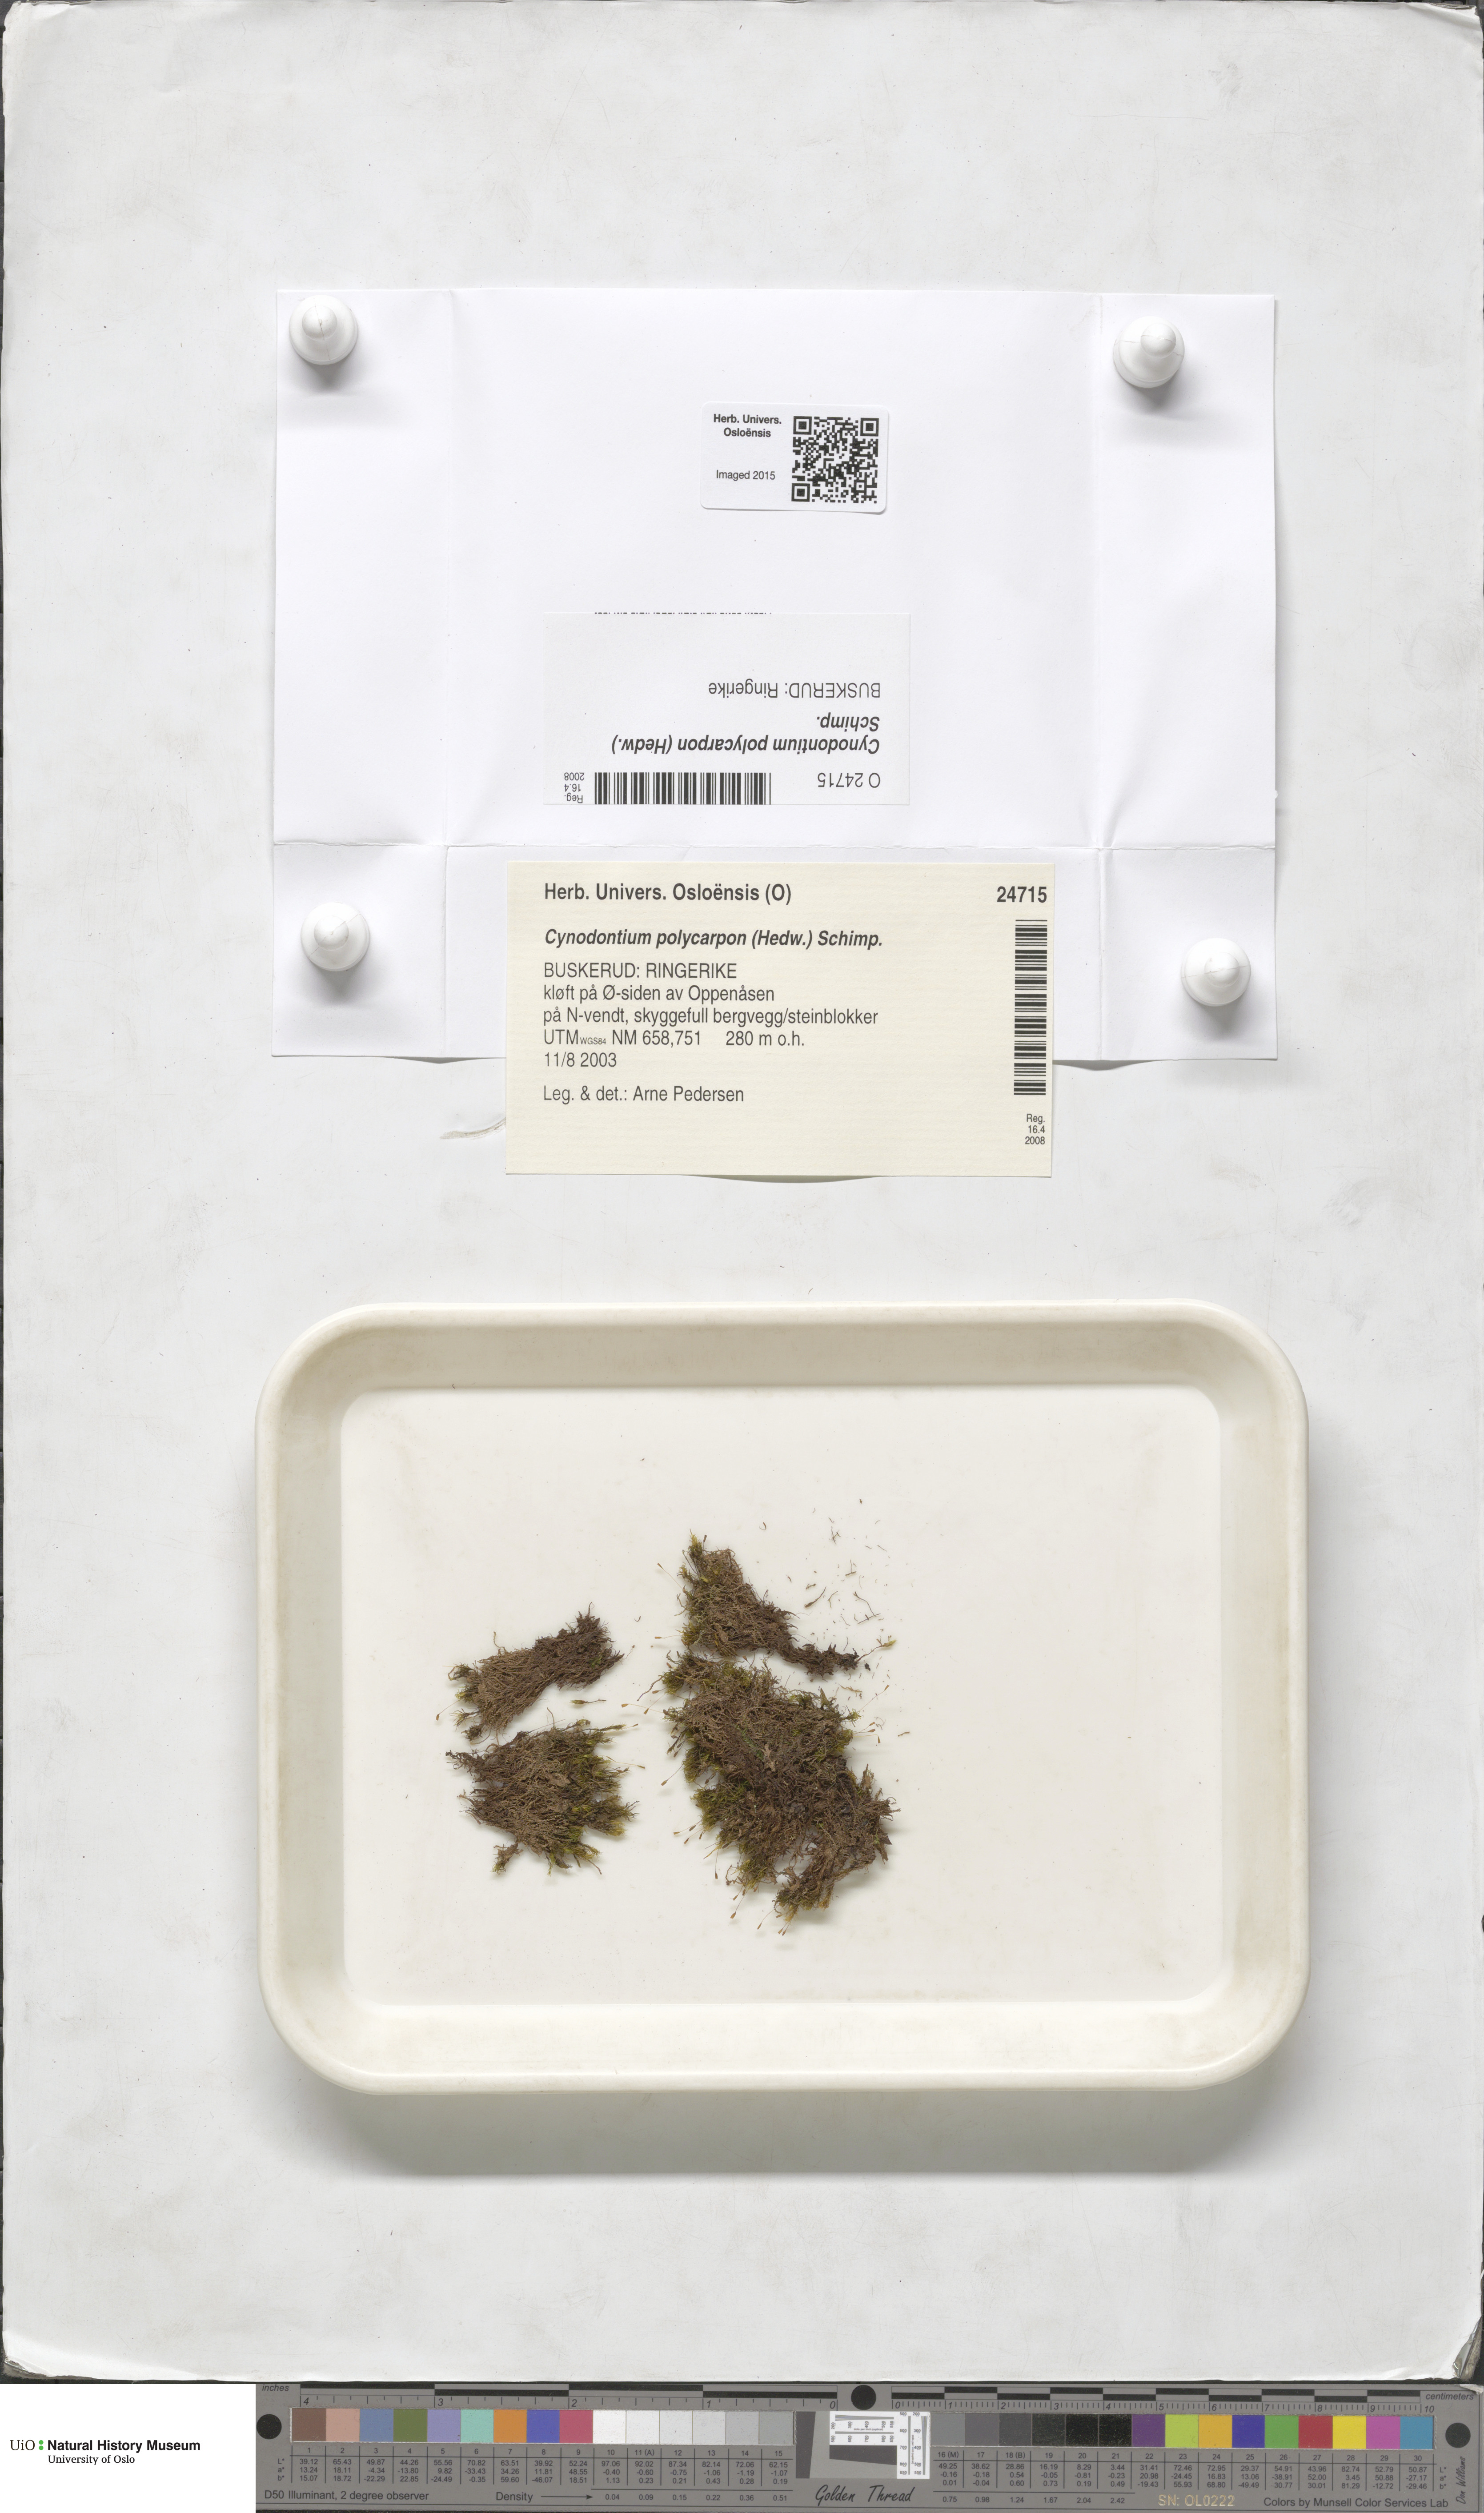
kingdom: Plantae
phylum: Bryophyta
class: Bryopsida
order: Dicranales
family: Rhabdoweisiaceae
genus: Cynodontium
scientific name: Cynodontium polycarpon
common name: Many-fruited dogtooth moss
